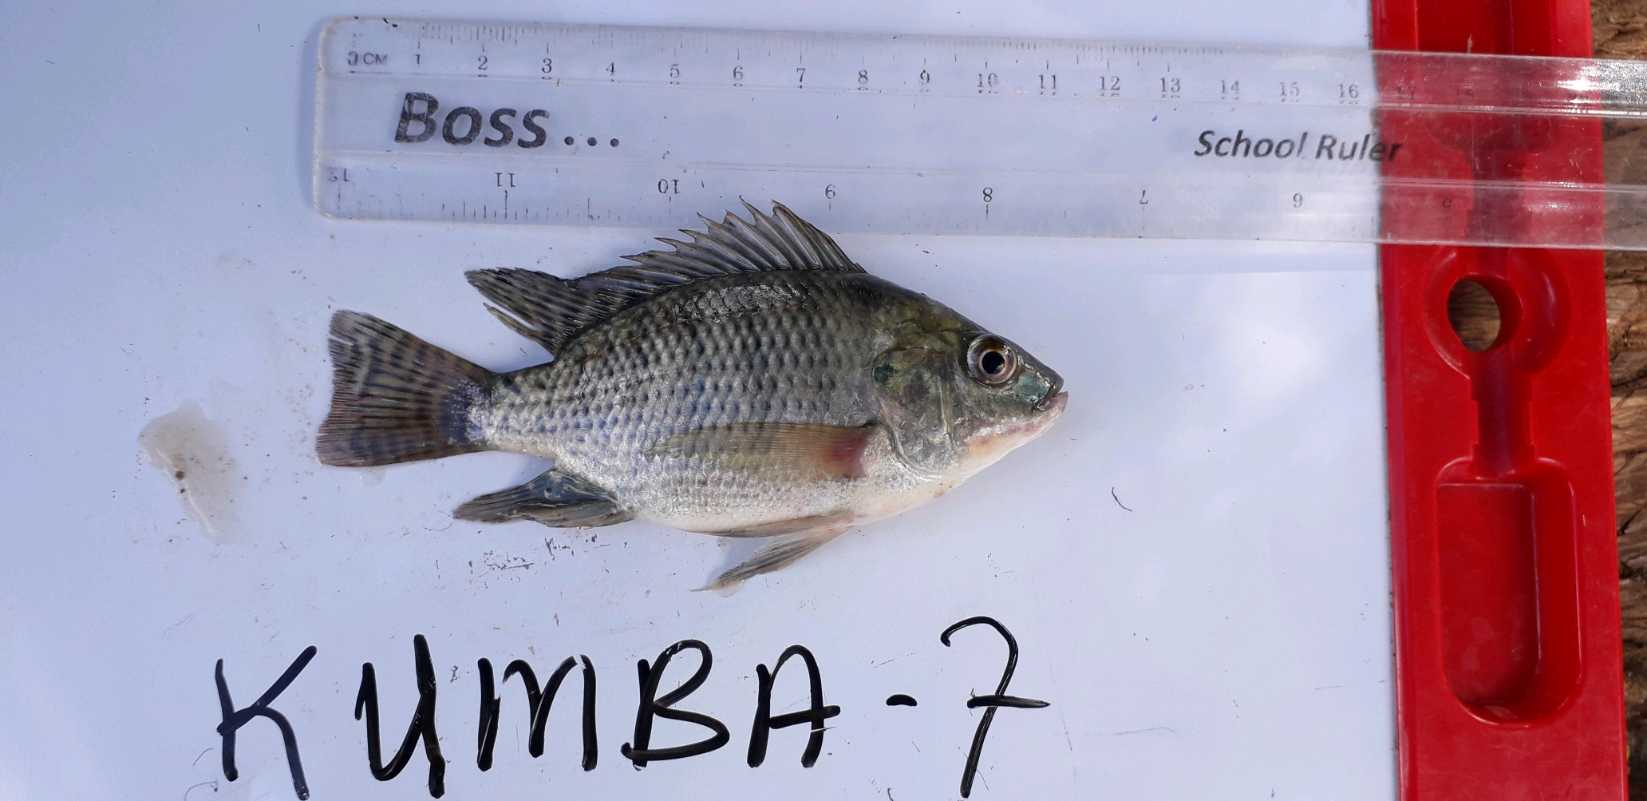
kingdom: Animalia
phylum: Chordata
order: Perciformes
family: Cichlidae
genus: Oreochromis
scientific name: Oreochromis niloticus
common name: Nile tilapia
